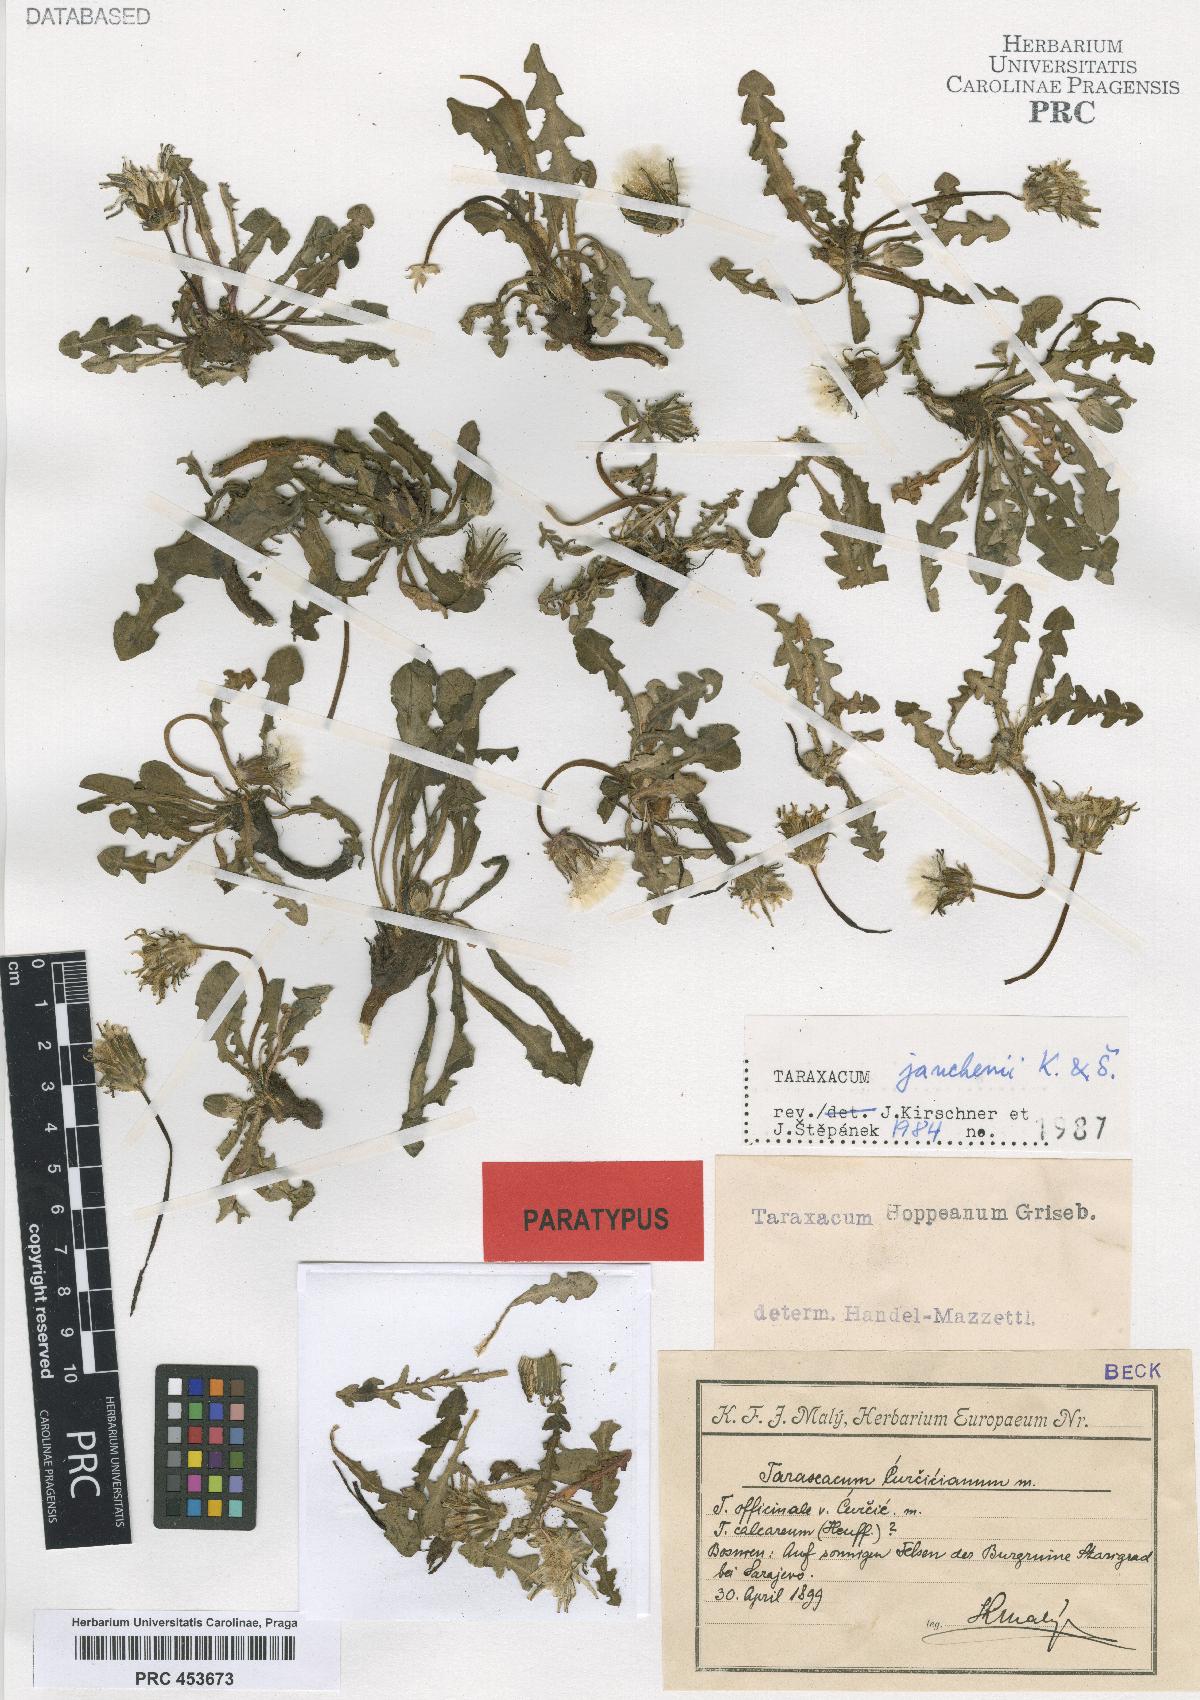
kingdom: Plantae
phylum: Tracheophyta
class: Magnoliopsida
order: Asterales
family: Asteraceae
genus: Taraxacum
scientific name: Taraxacum janchenii
